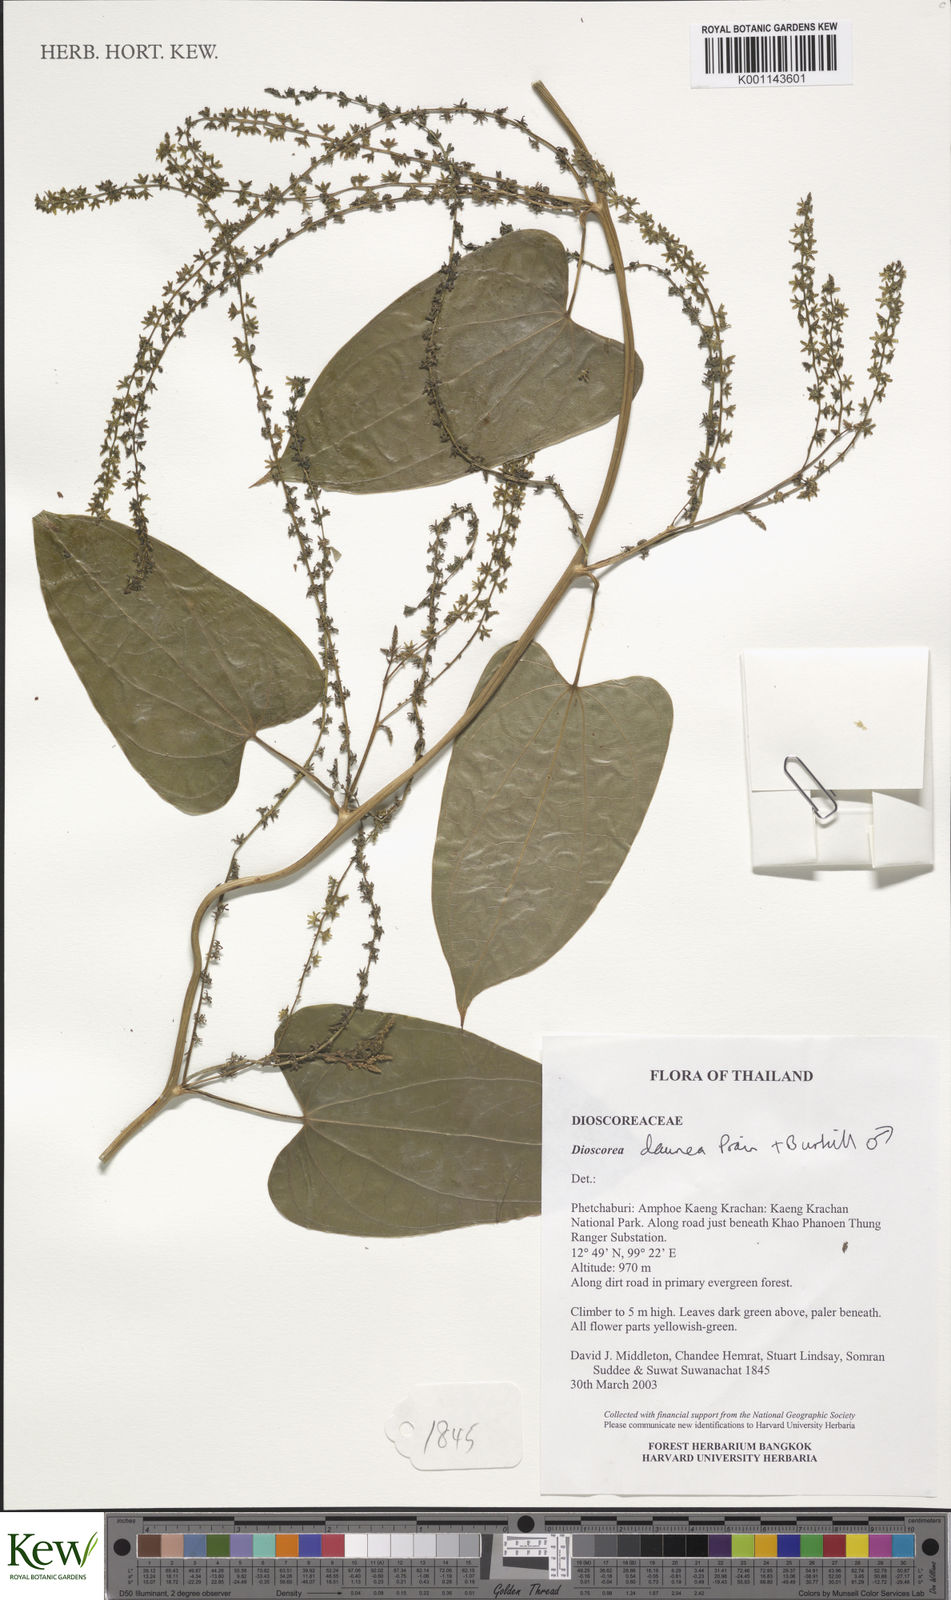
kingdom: Plantae
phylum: Tracheophyta
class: Liliopsida
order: Dioscoreales
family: Dioscoreaceae
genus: Dioscorea
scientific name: Dioscorea daunea
